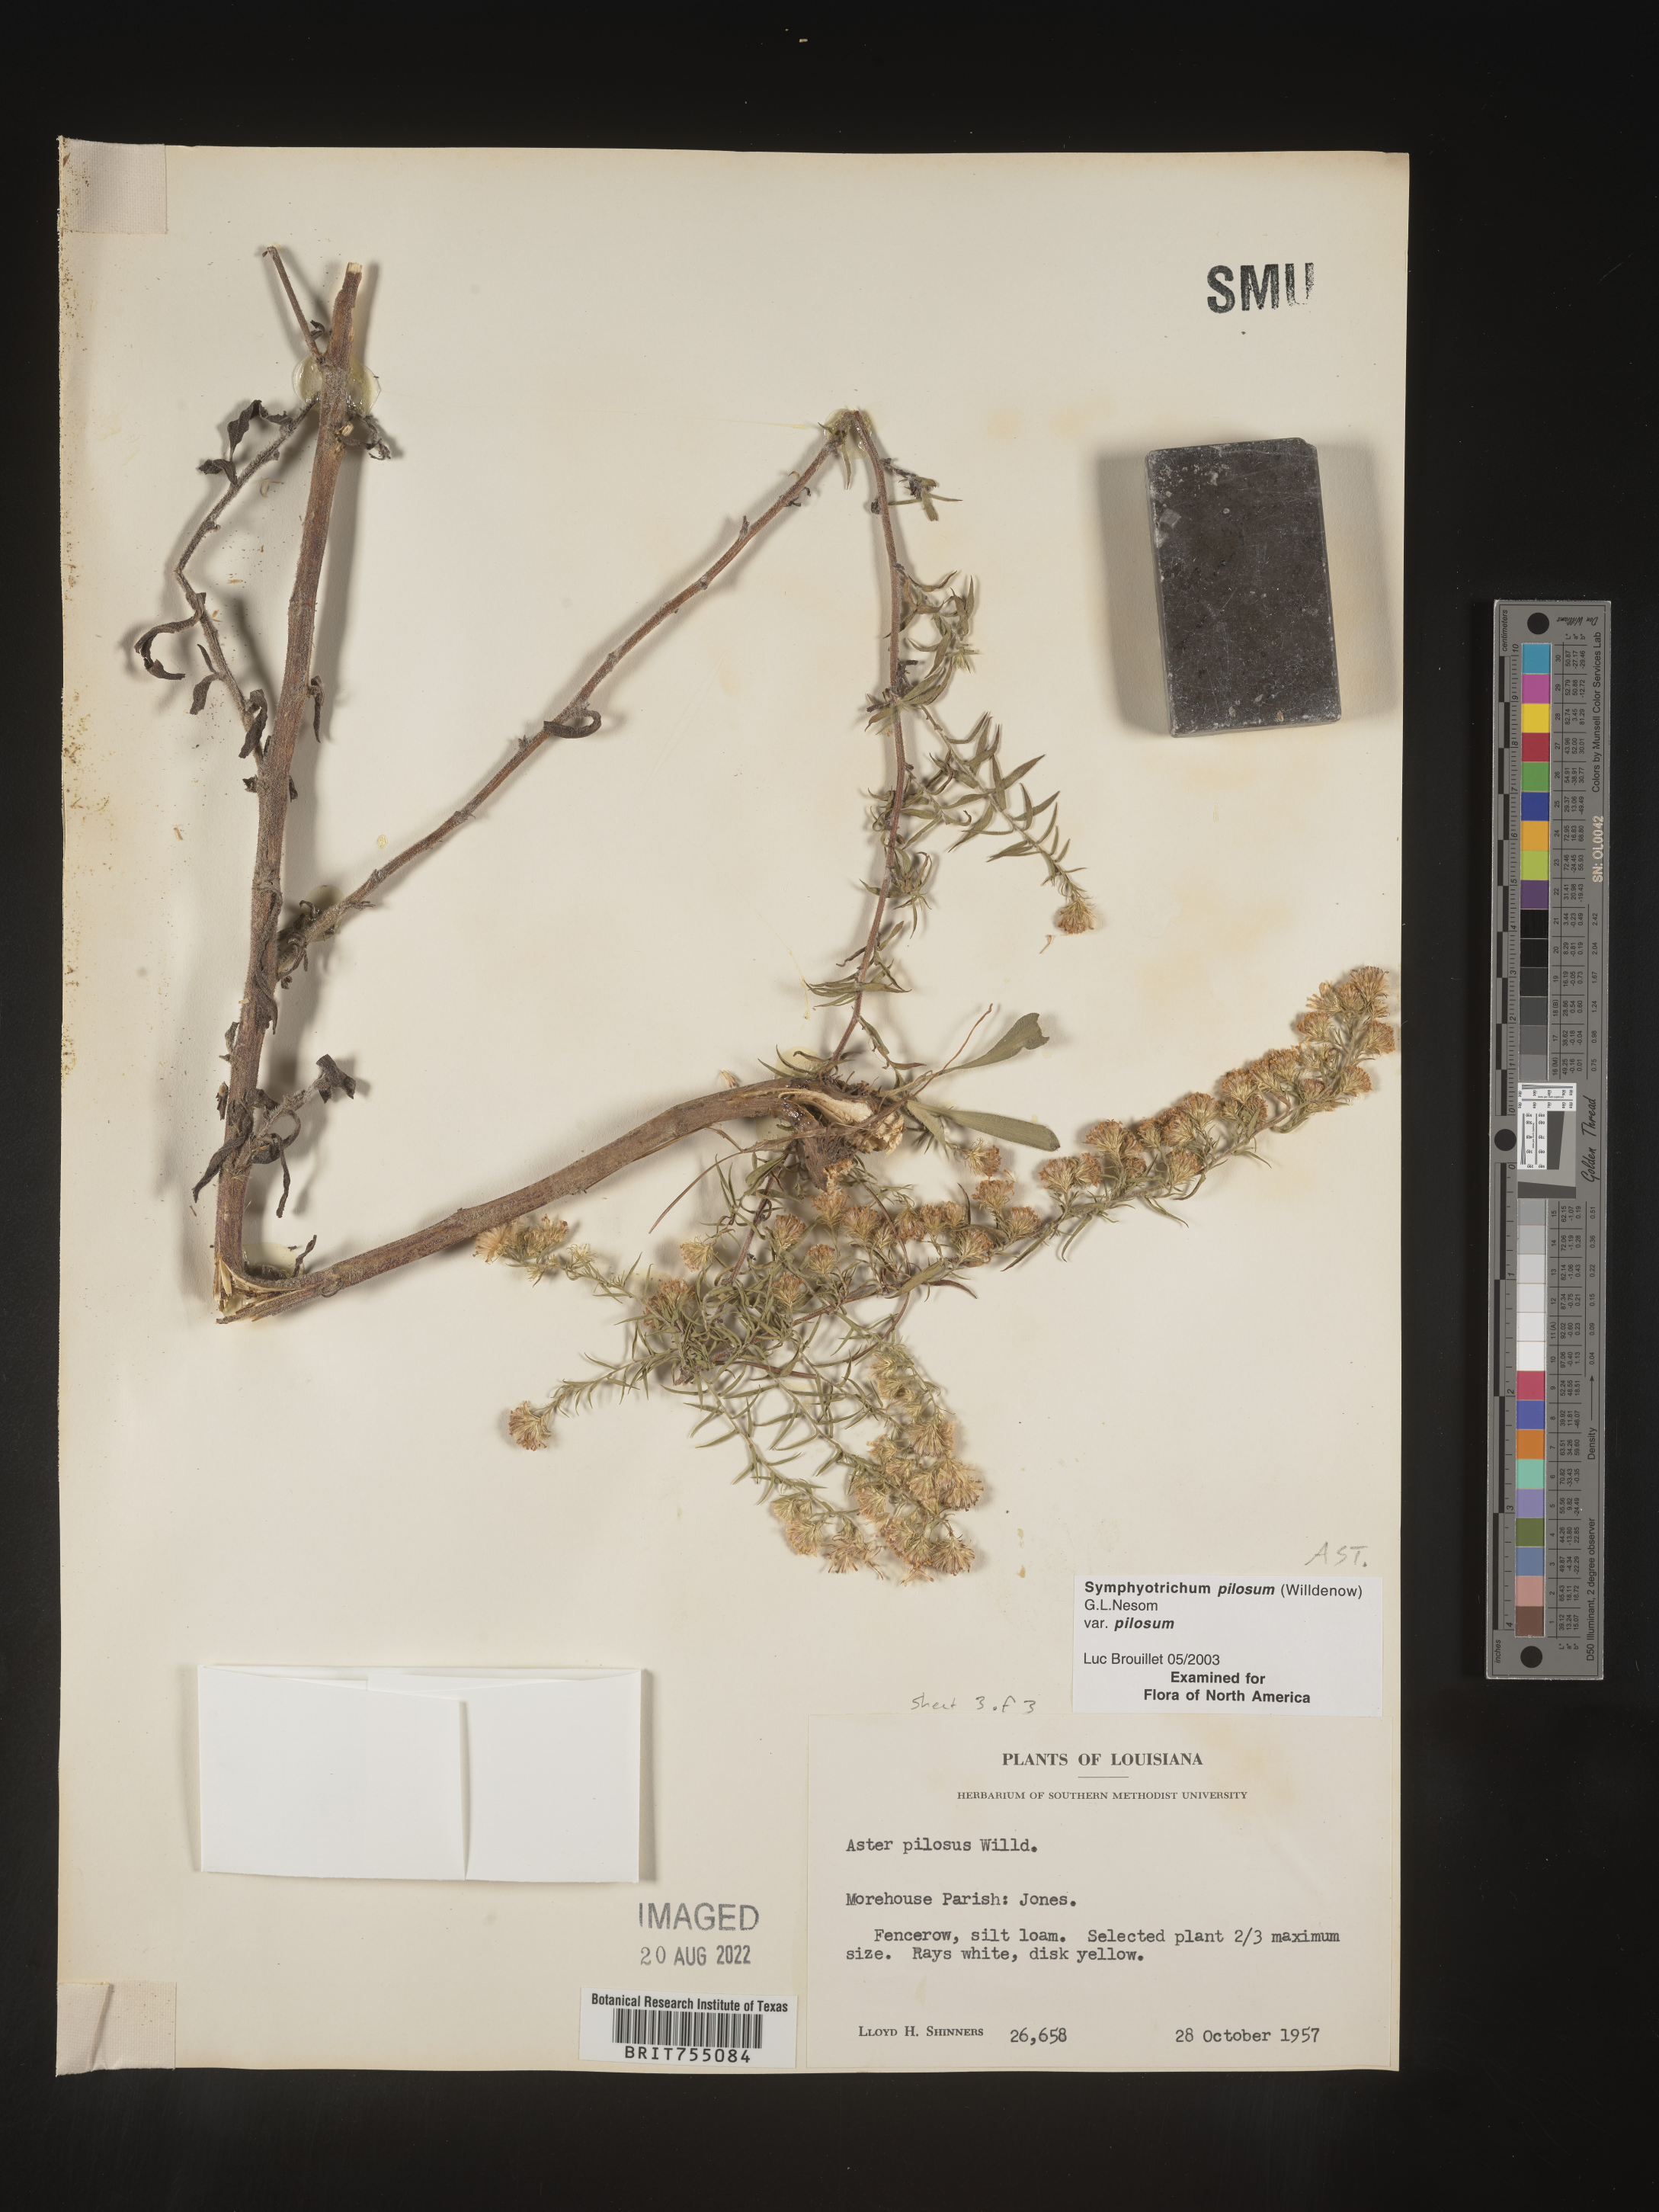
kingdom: Plantae
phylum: Tracheophyta
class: Magnoliopsida
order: Asterales
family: Asteraceae
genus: Symphyotrichum
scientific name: Symphyotrichum pilosum
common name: Awl aster
